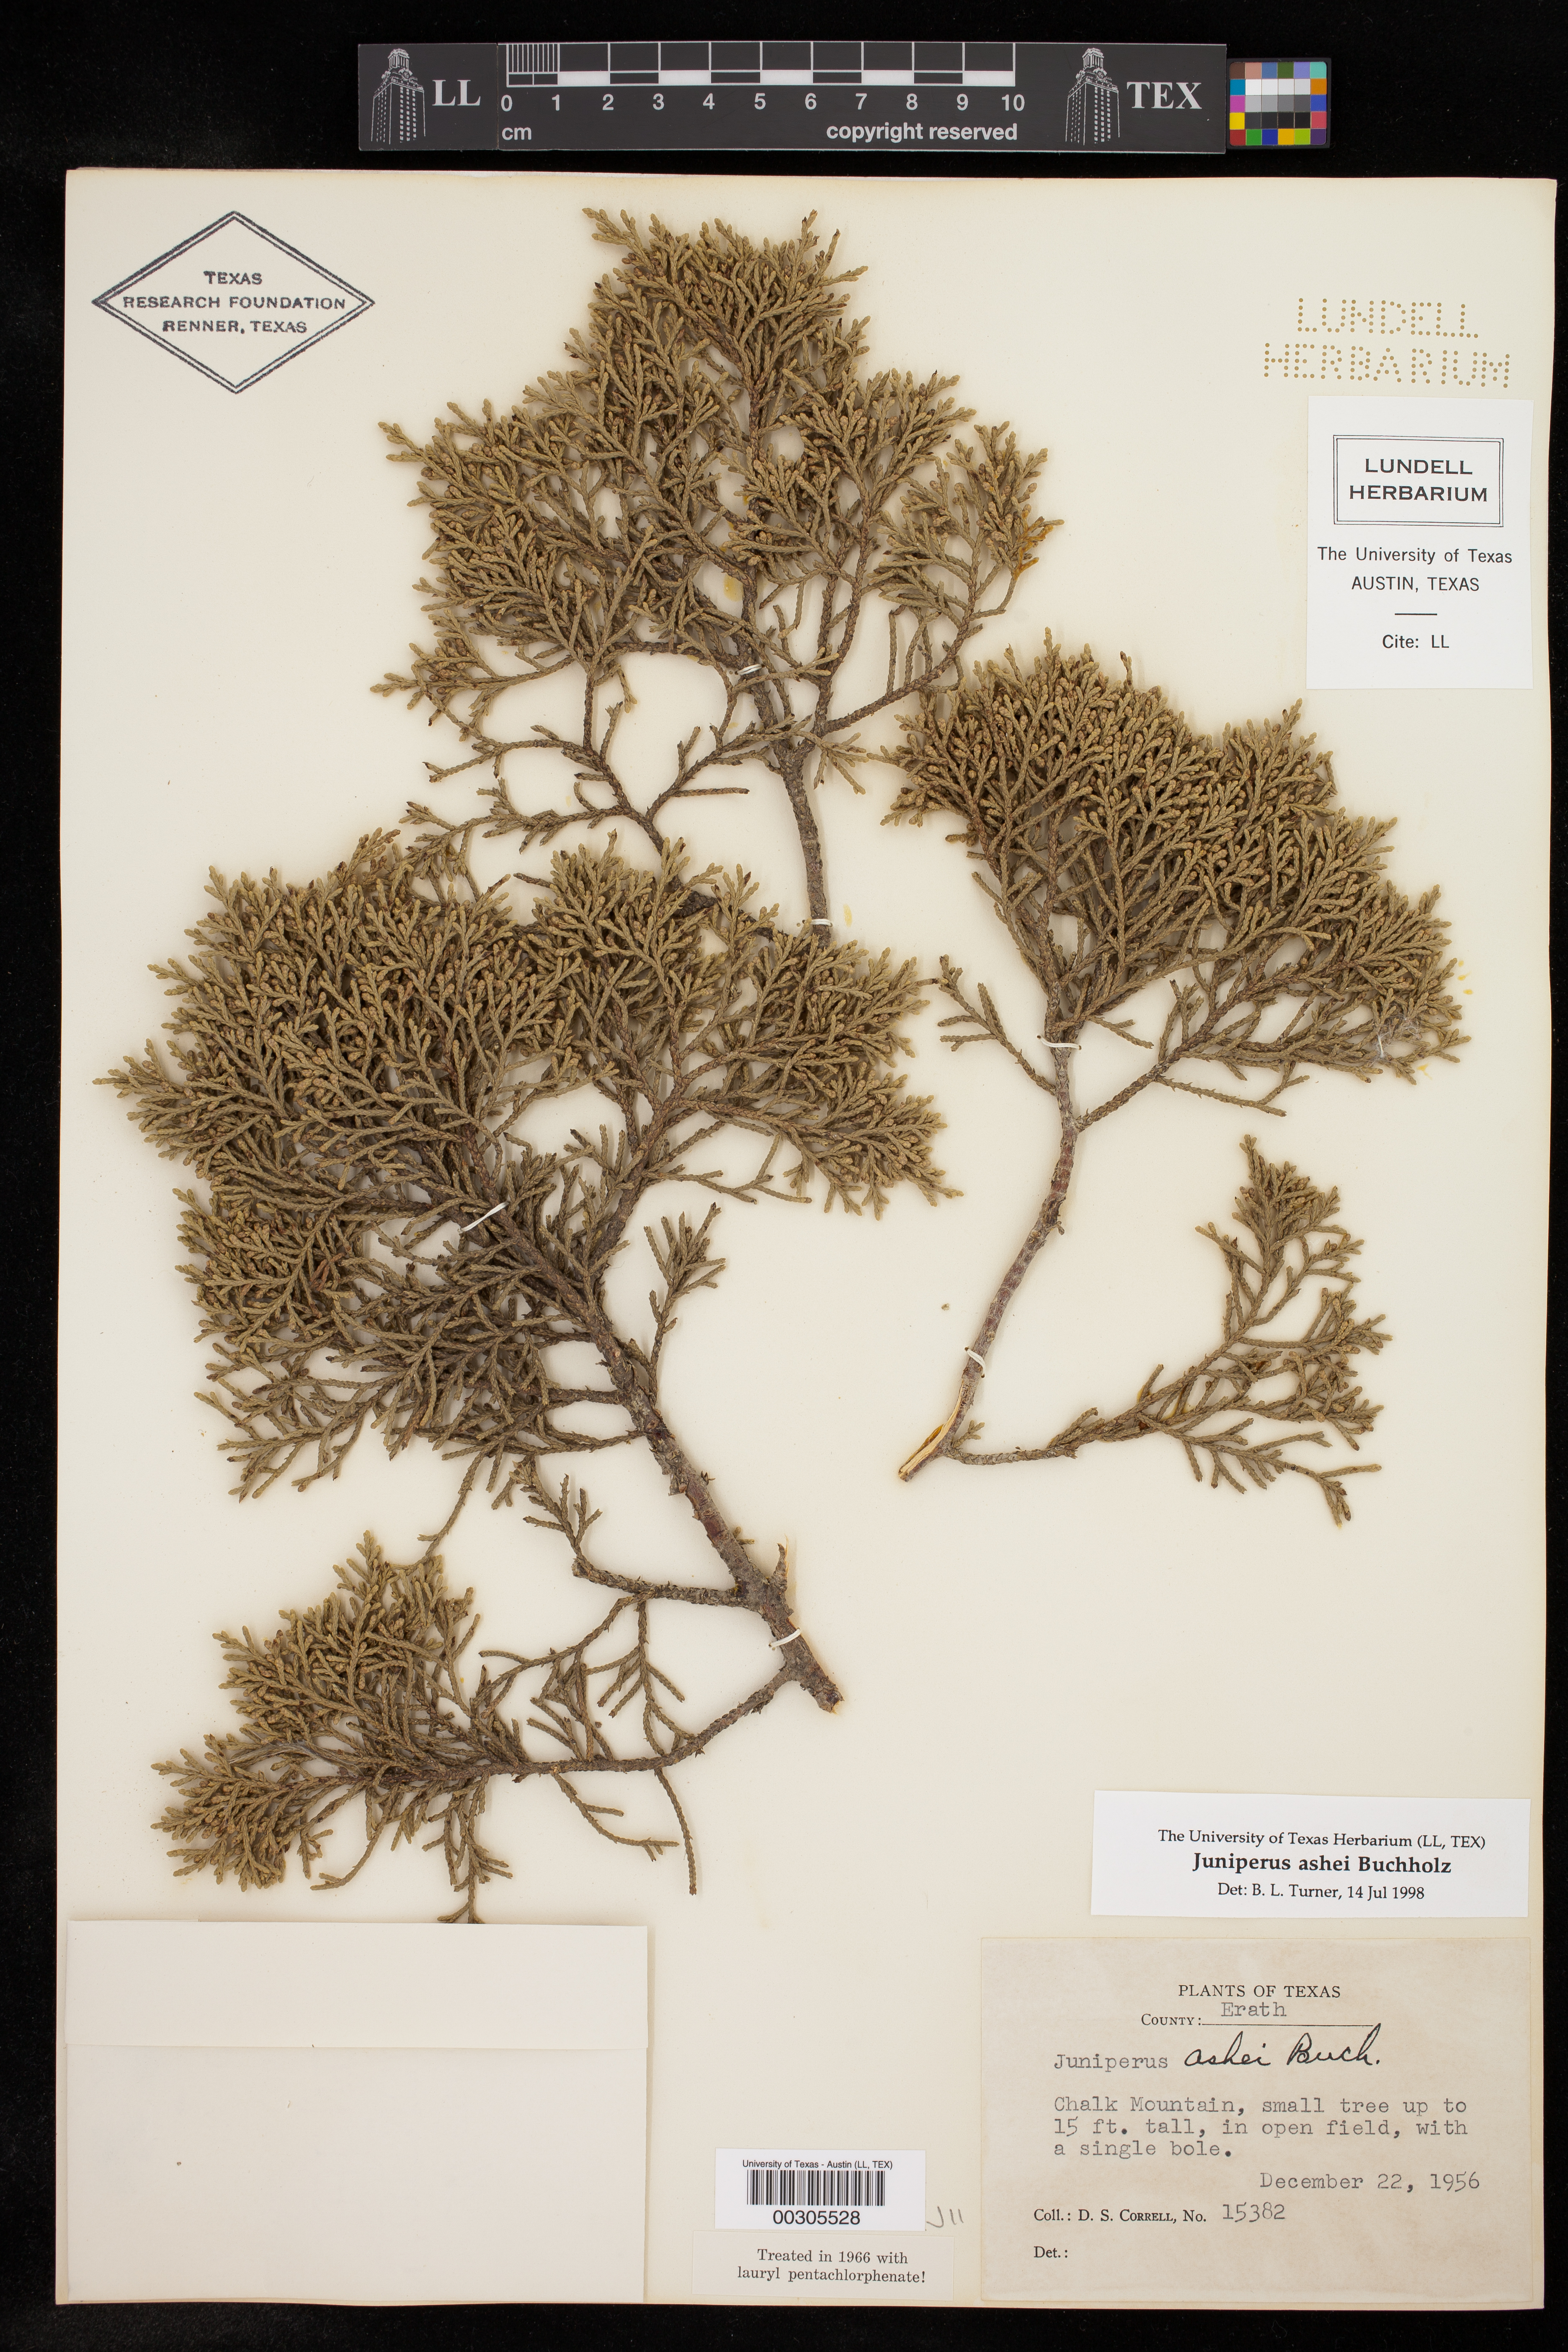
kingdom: Plantae
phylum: Tracheophyta
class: Pinopsida
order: Pinales
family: Cupressaceae
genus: Juniperus
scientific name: Juniperus ashei
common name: Mexican juniper
